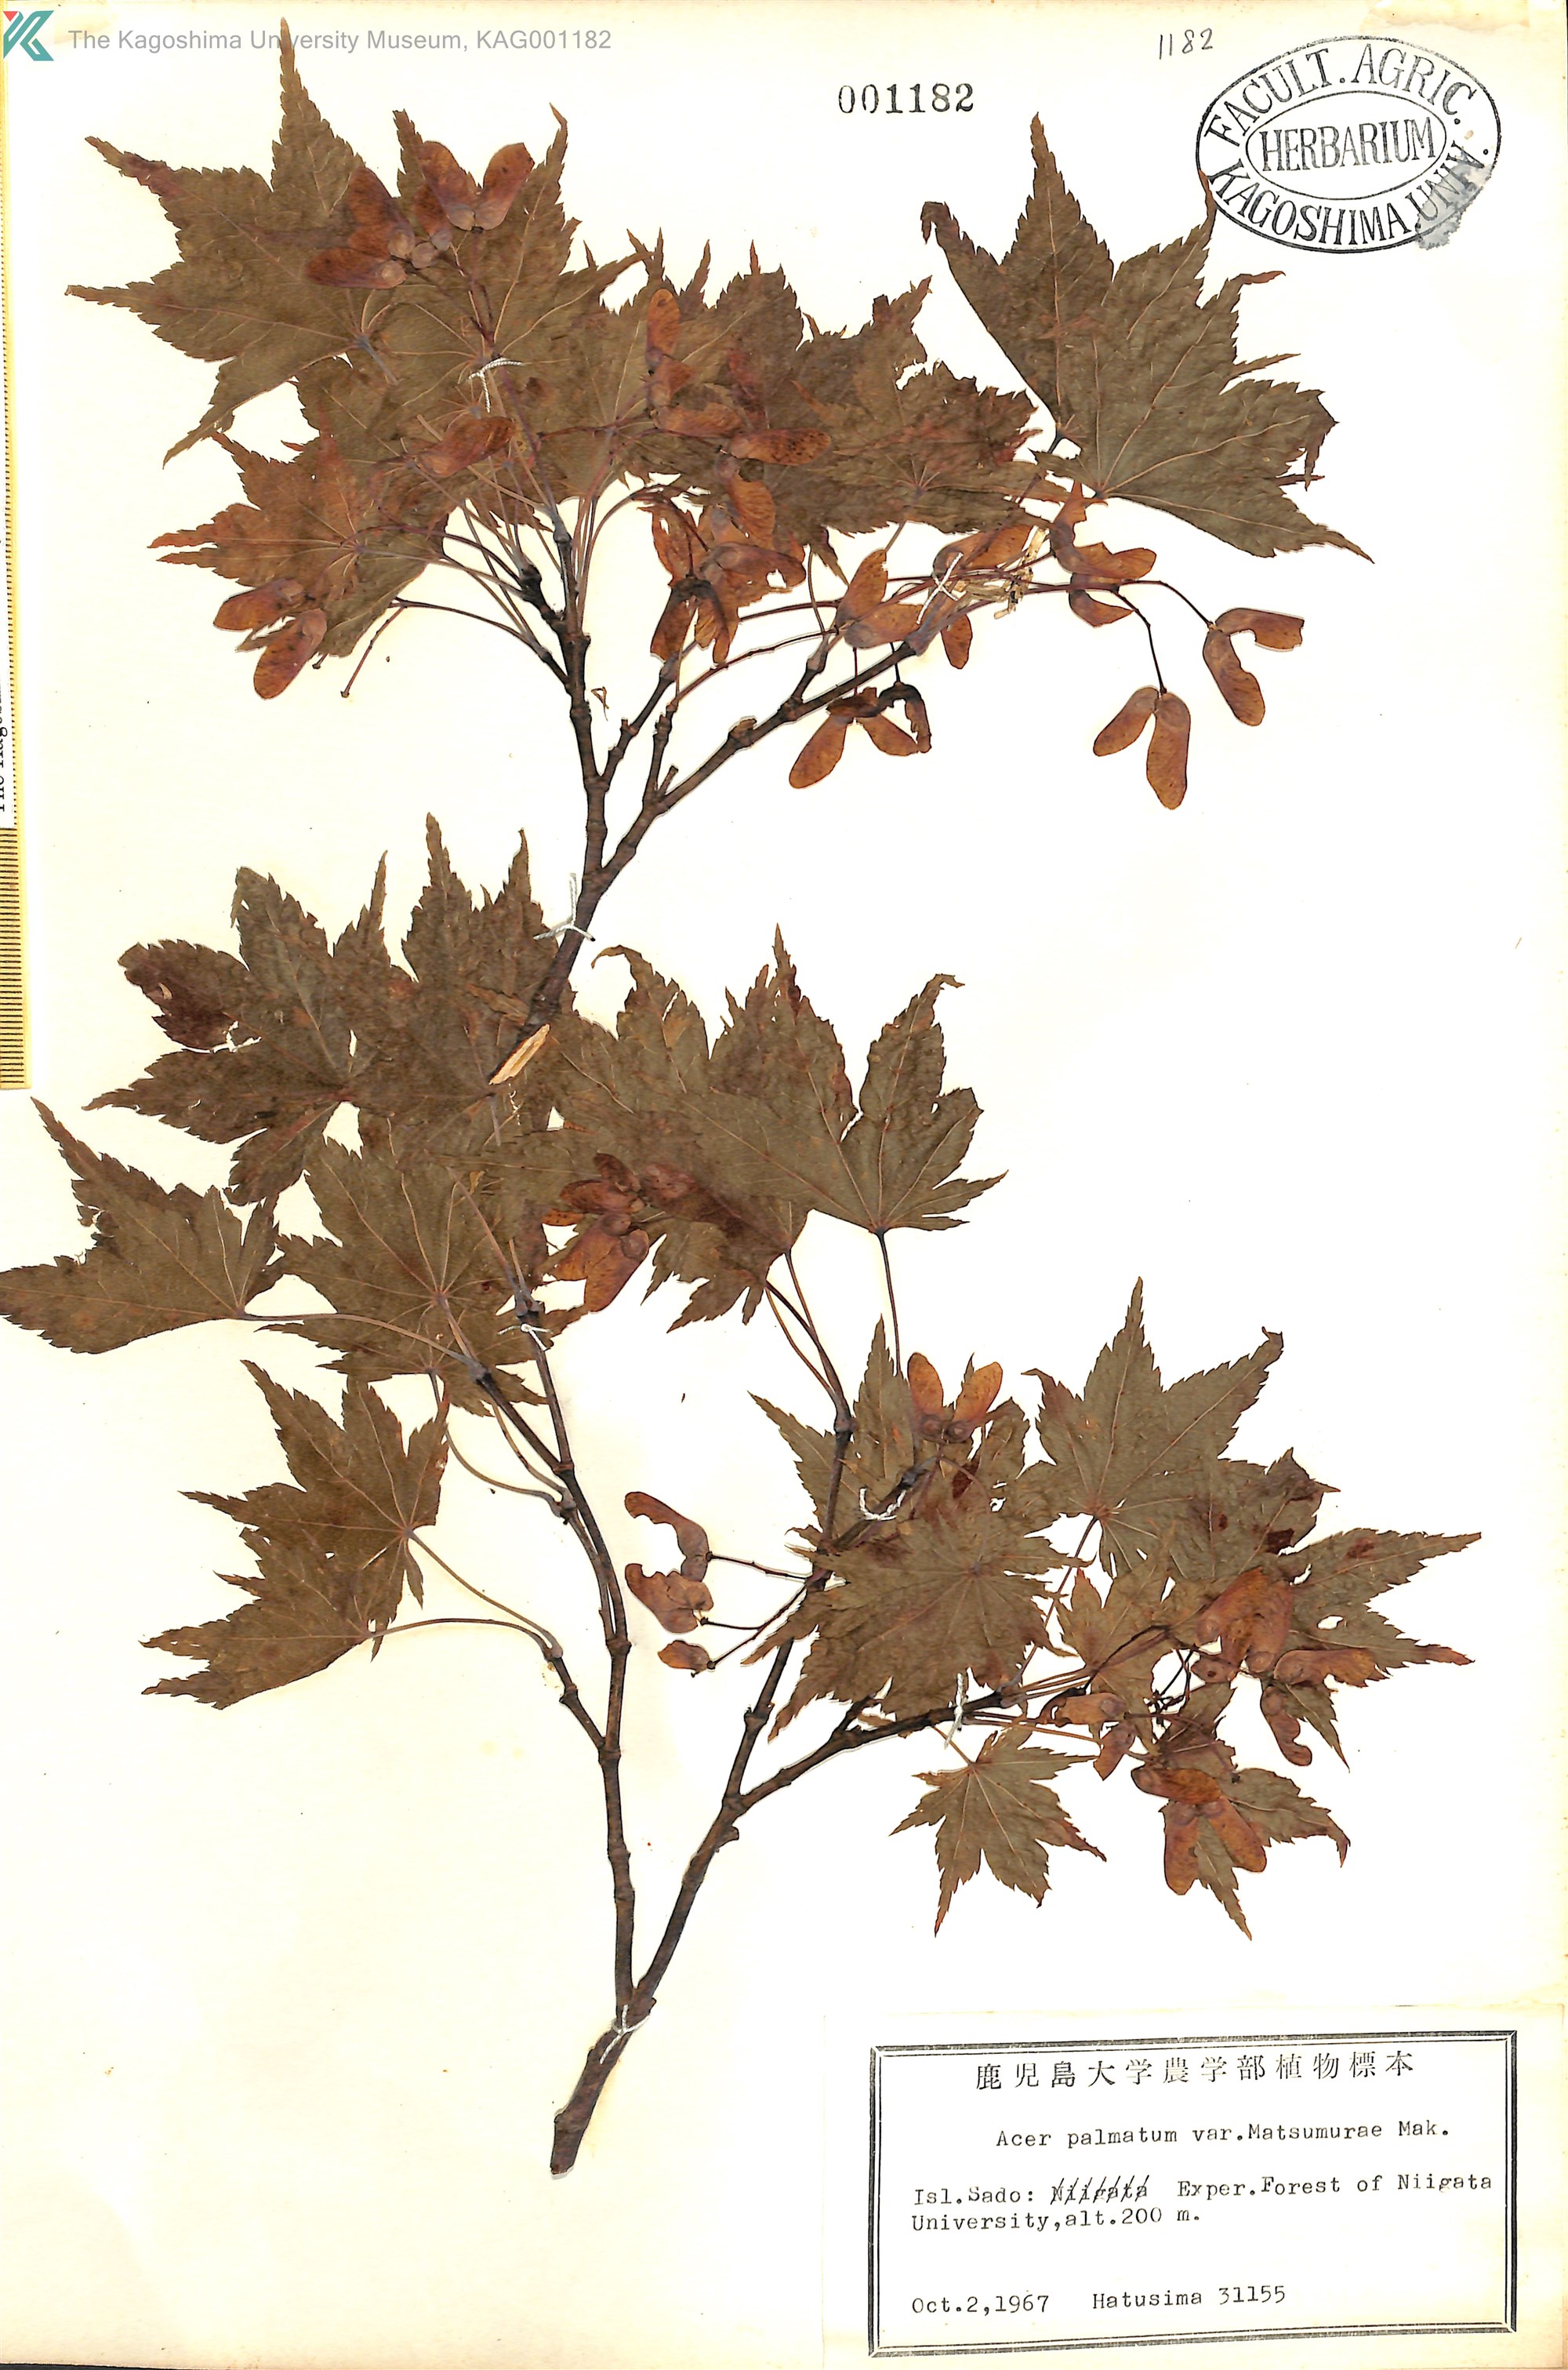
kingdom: Plantae
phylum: Tracheophyta
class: Magnoliopsida
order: Sapindales
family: Sapindaceae
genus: Acer
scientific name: Acer palmatum
